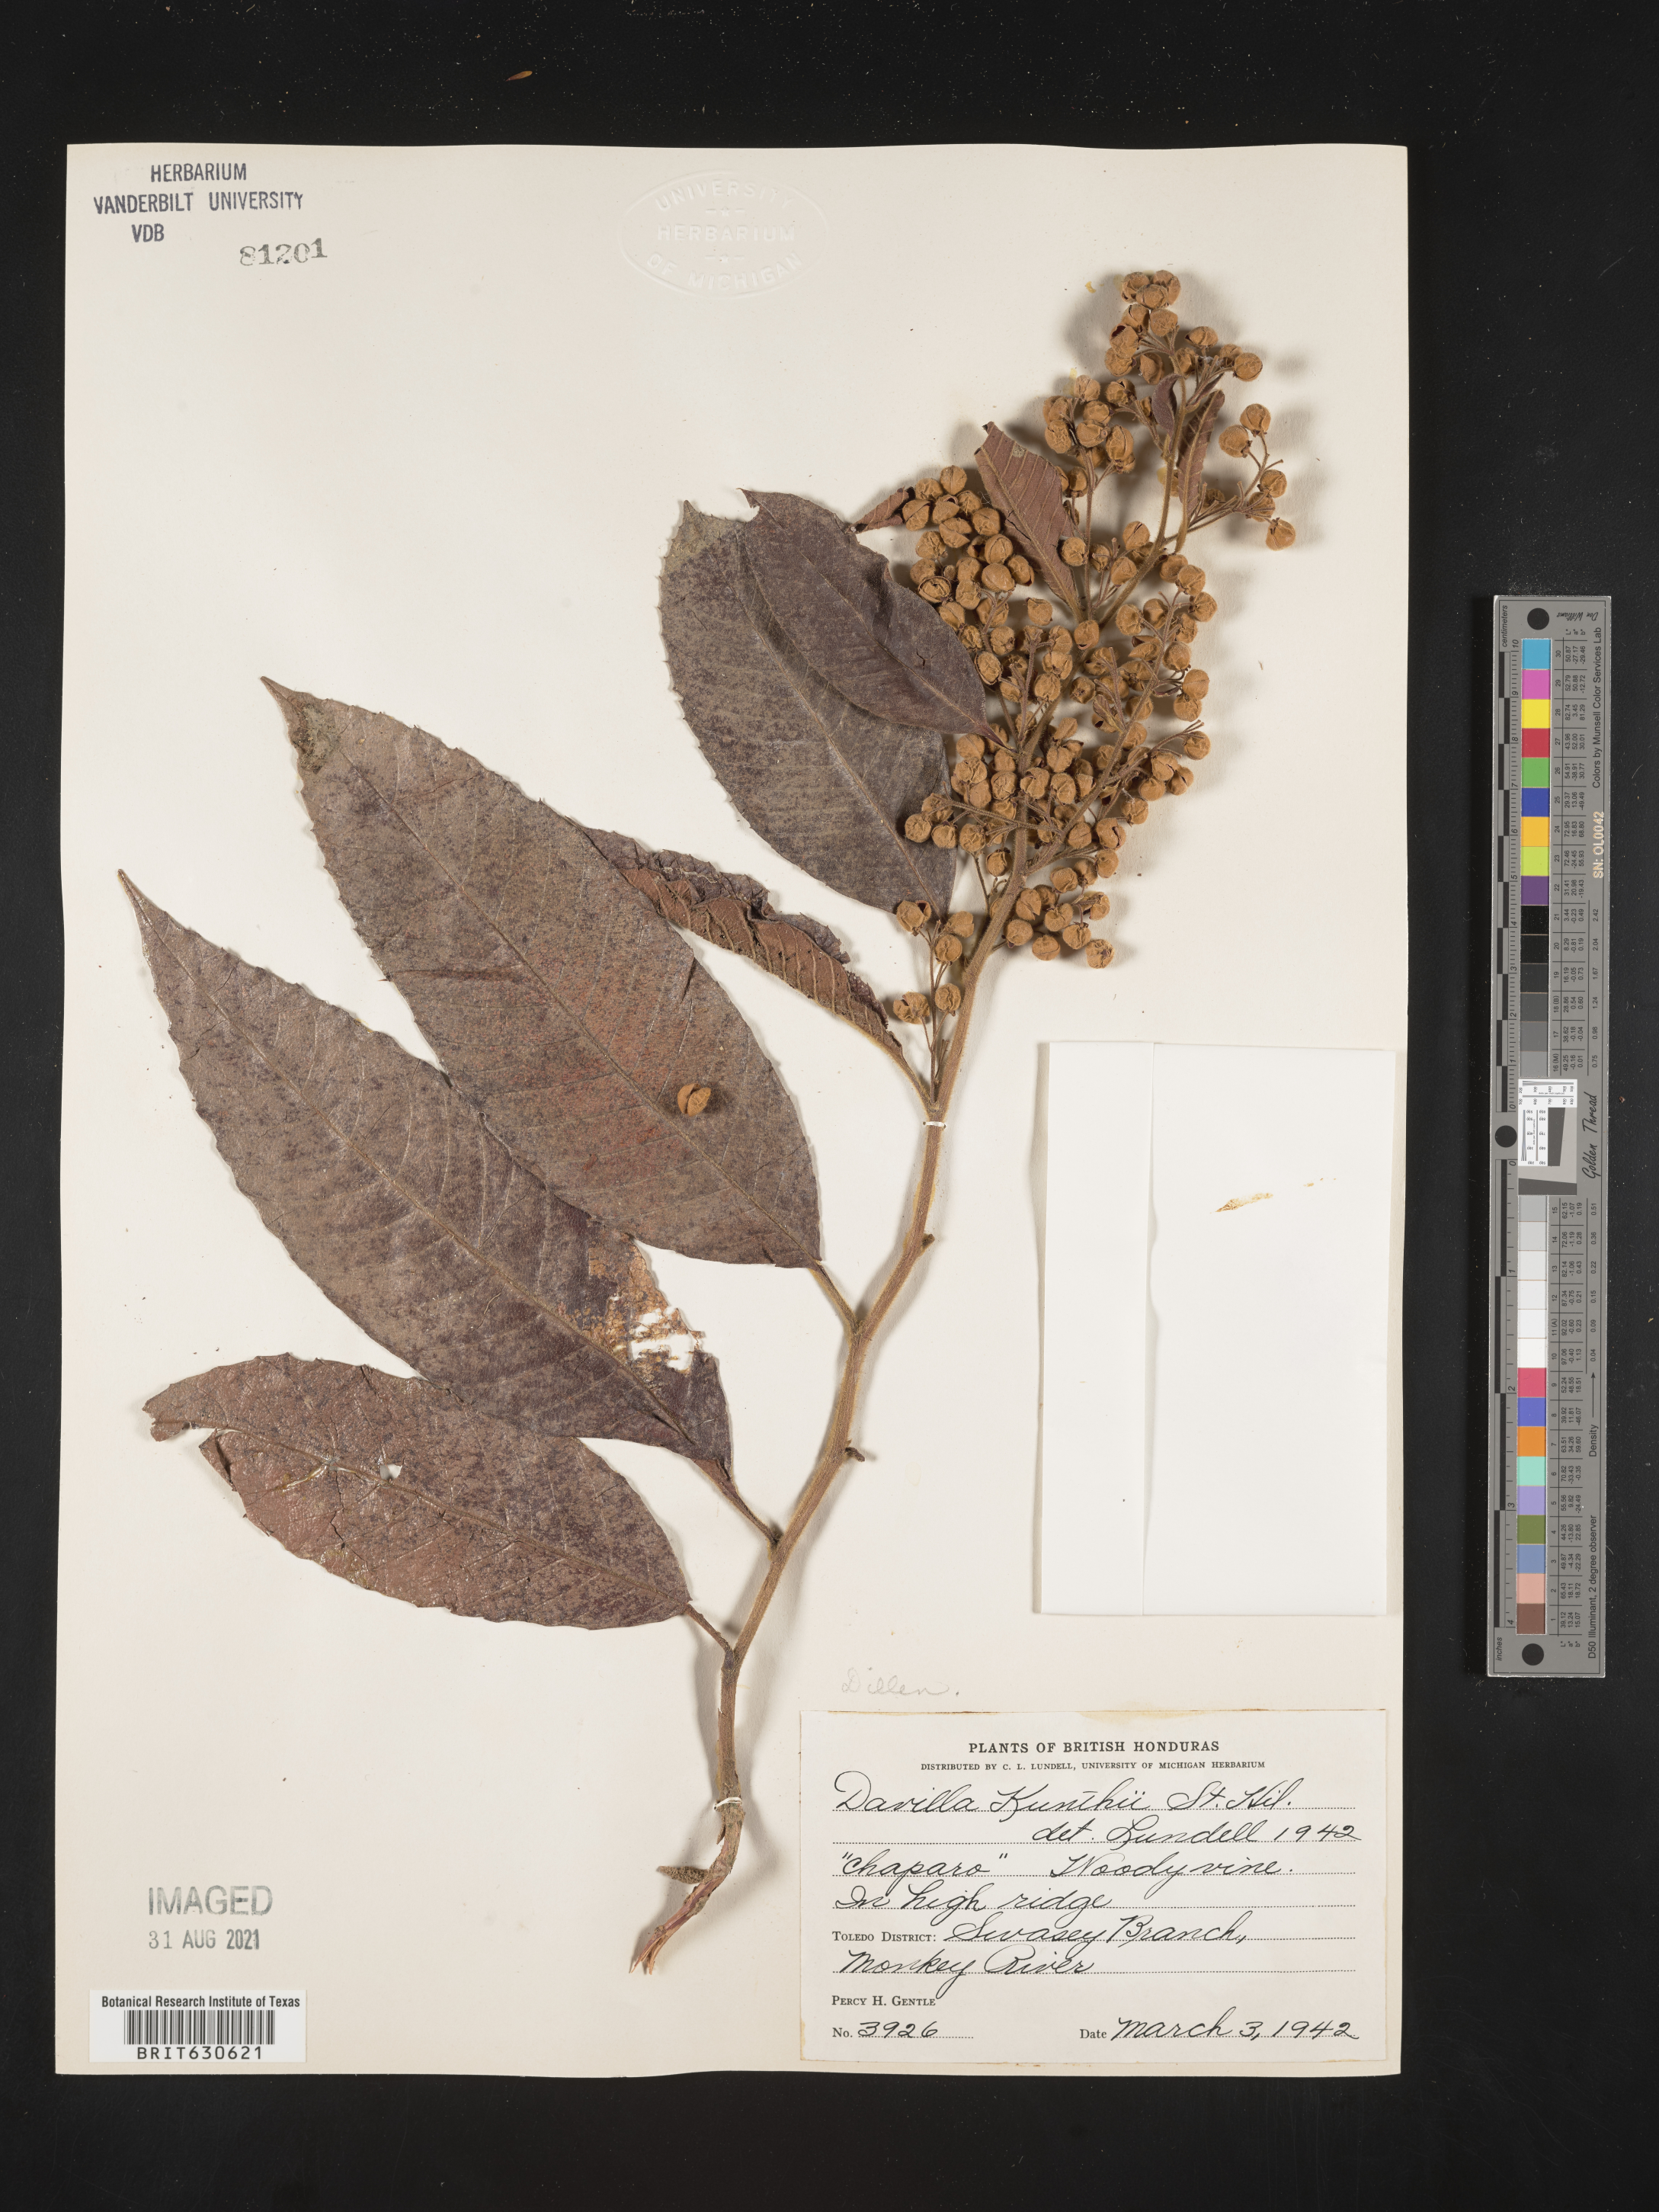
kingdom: Plantae
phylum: Tracheophyta
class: Magnoliopsida
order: Dilleniales
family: Dilleniaceae
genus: Davilla
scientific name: Davilla
